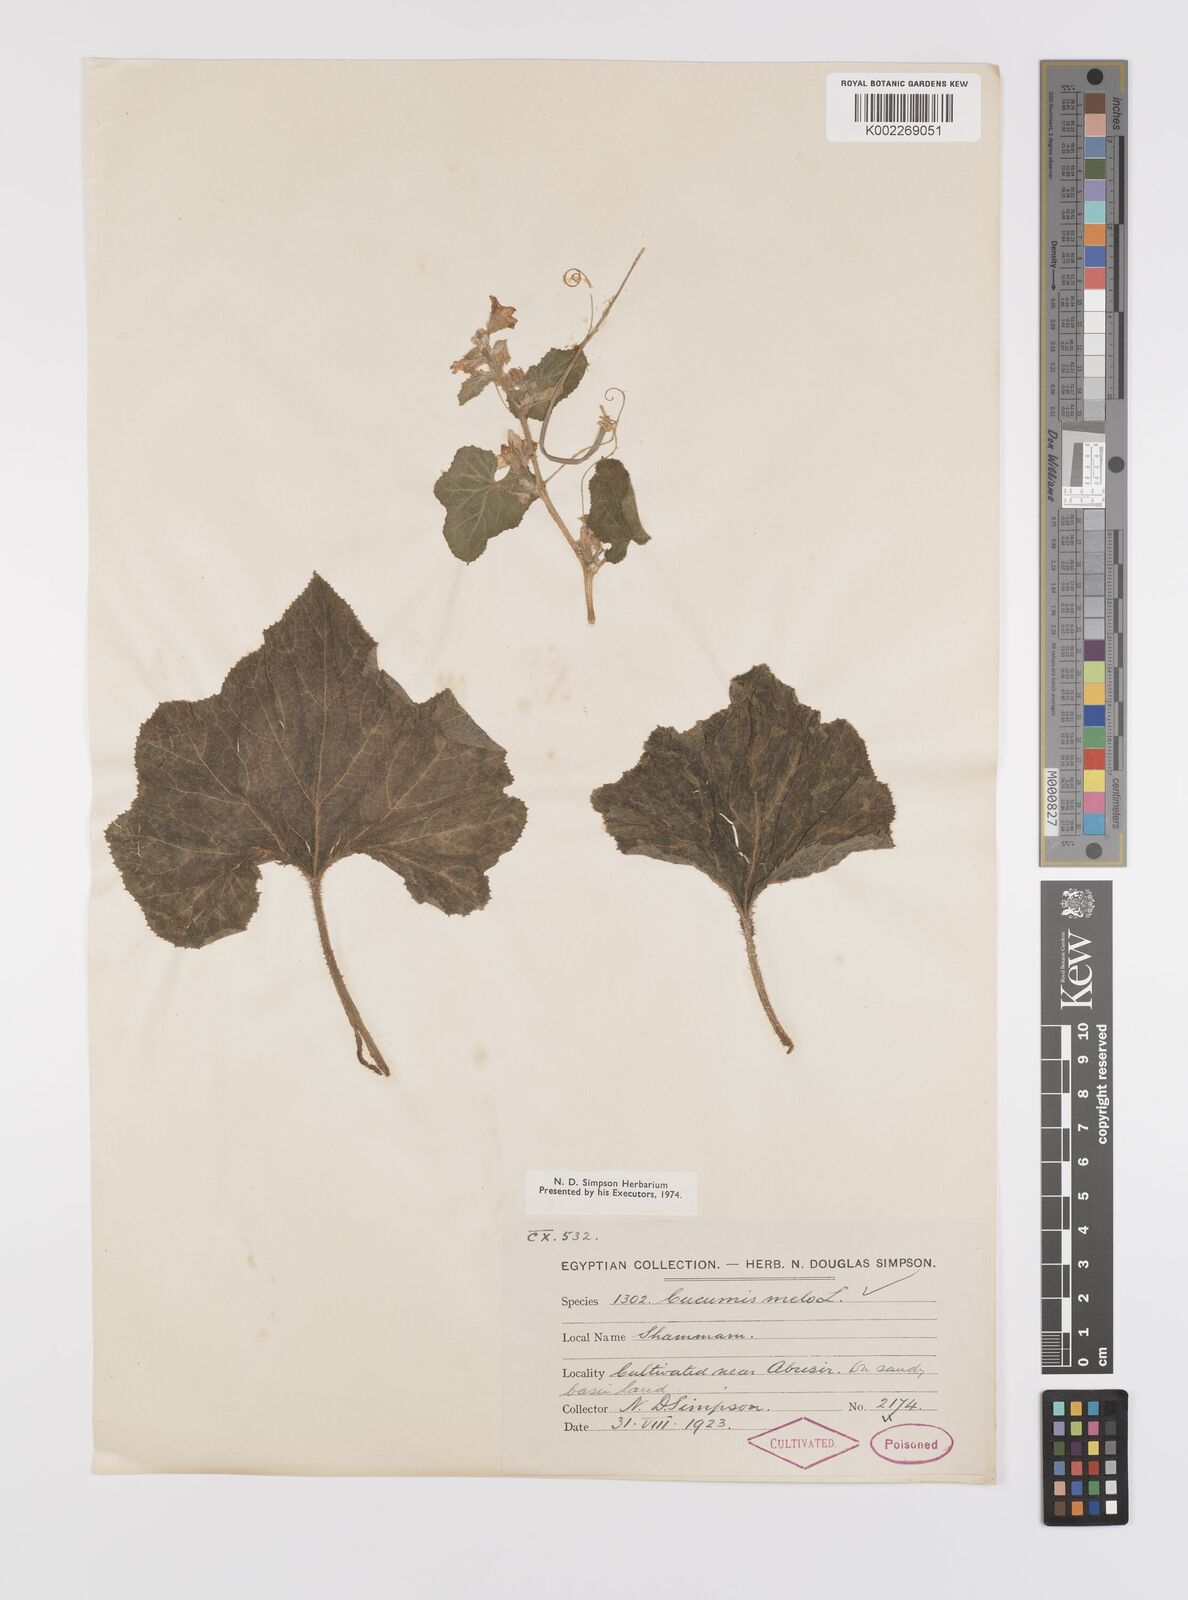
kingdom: Plantae
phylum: Tracheophyta
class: Magnoliopsida
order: Cucurbitales
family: Cucurbitaceae
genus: Cucumis
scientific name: Cucumis melo
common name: Melon
